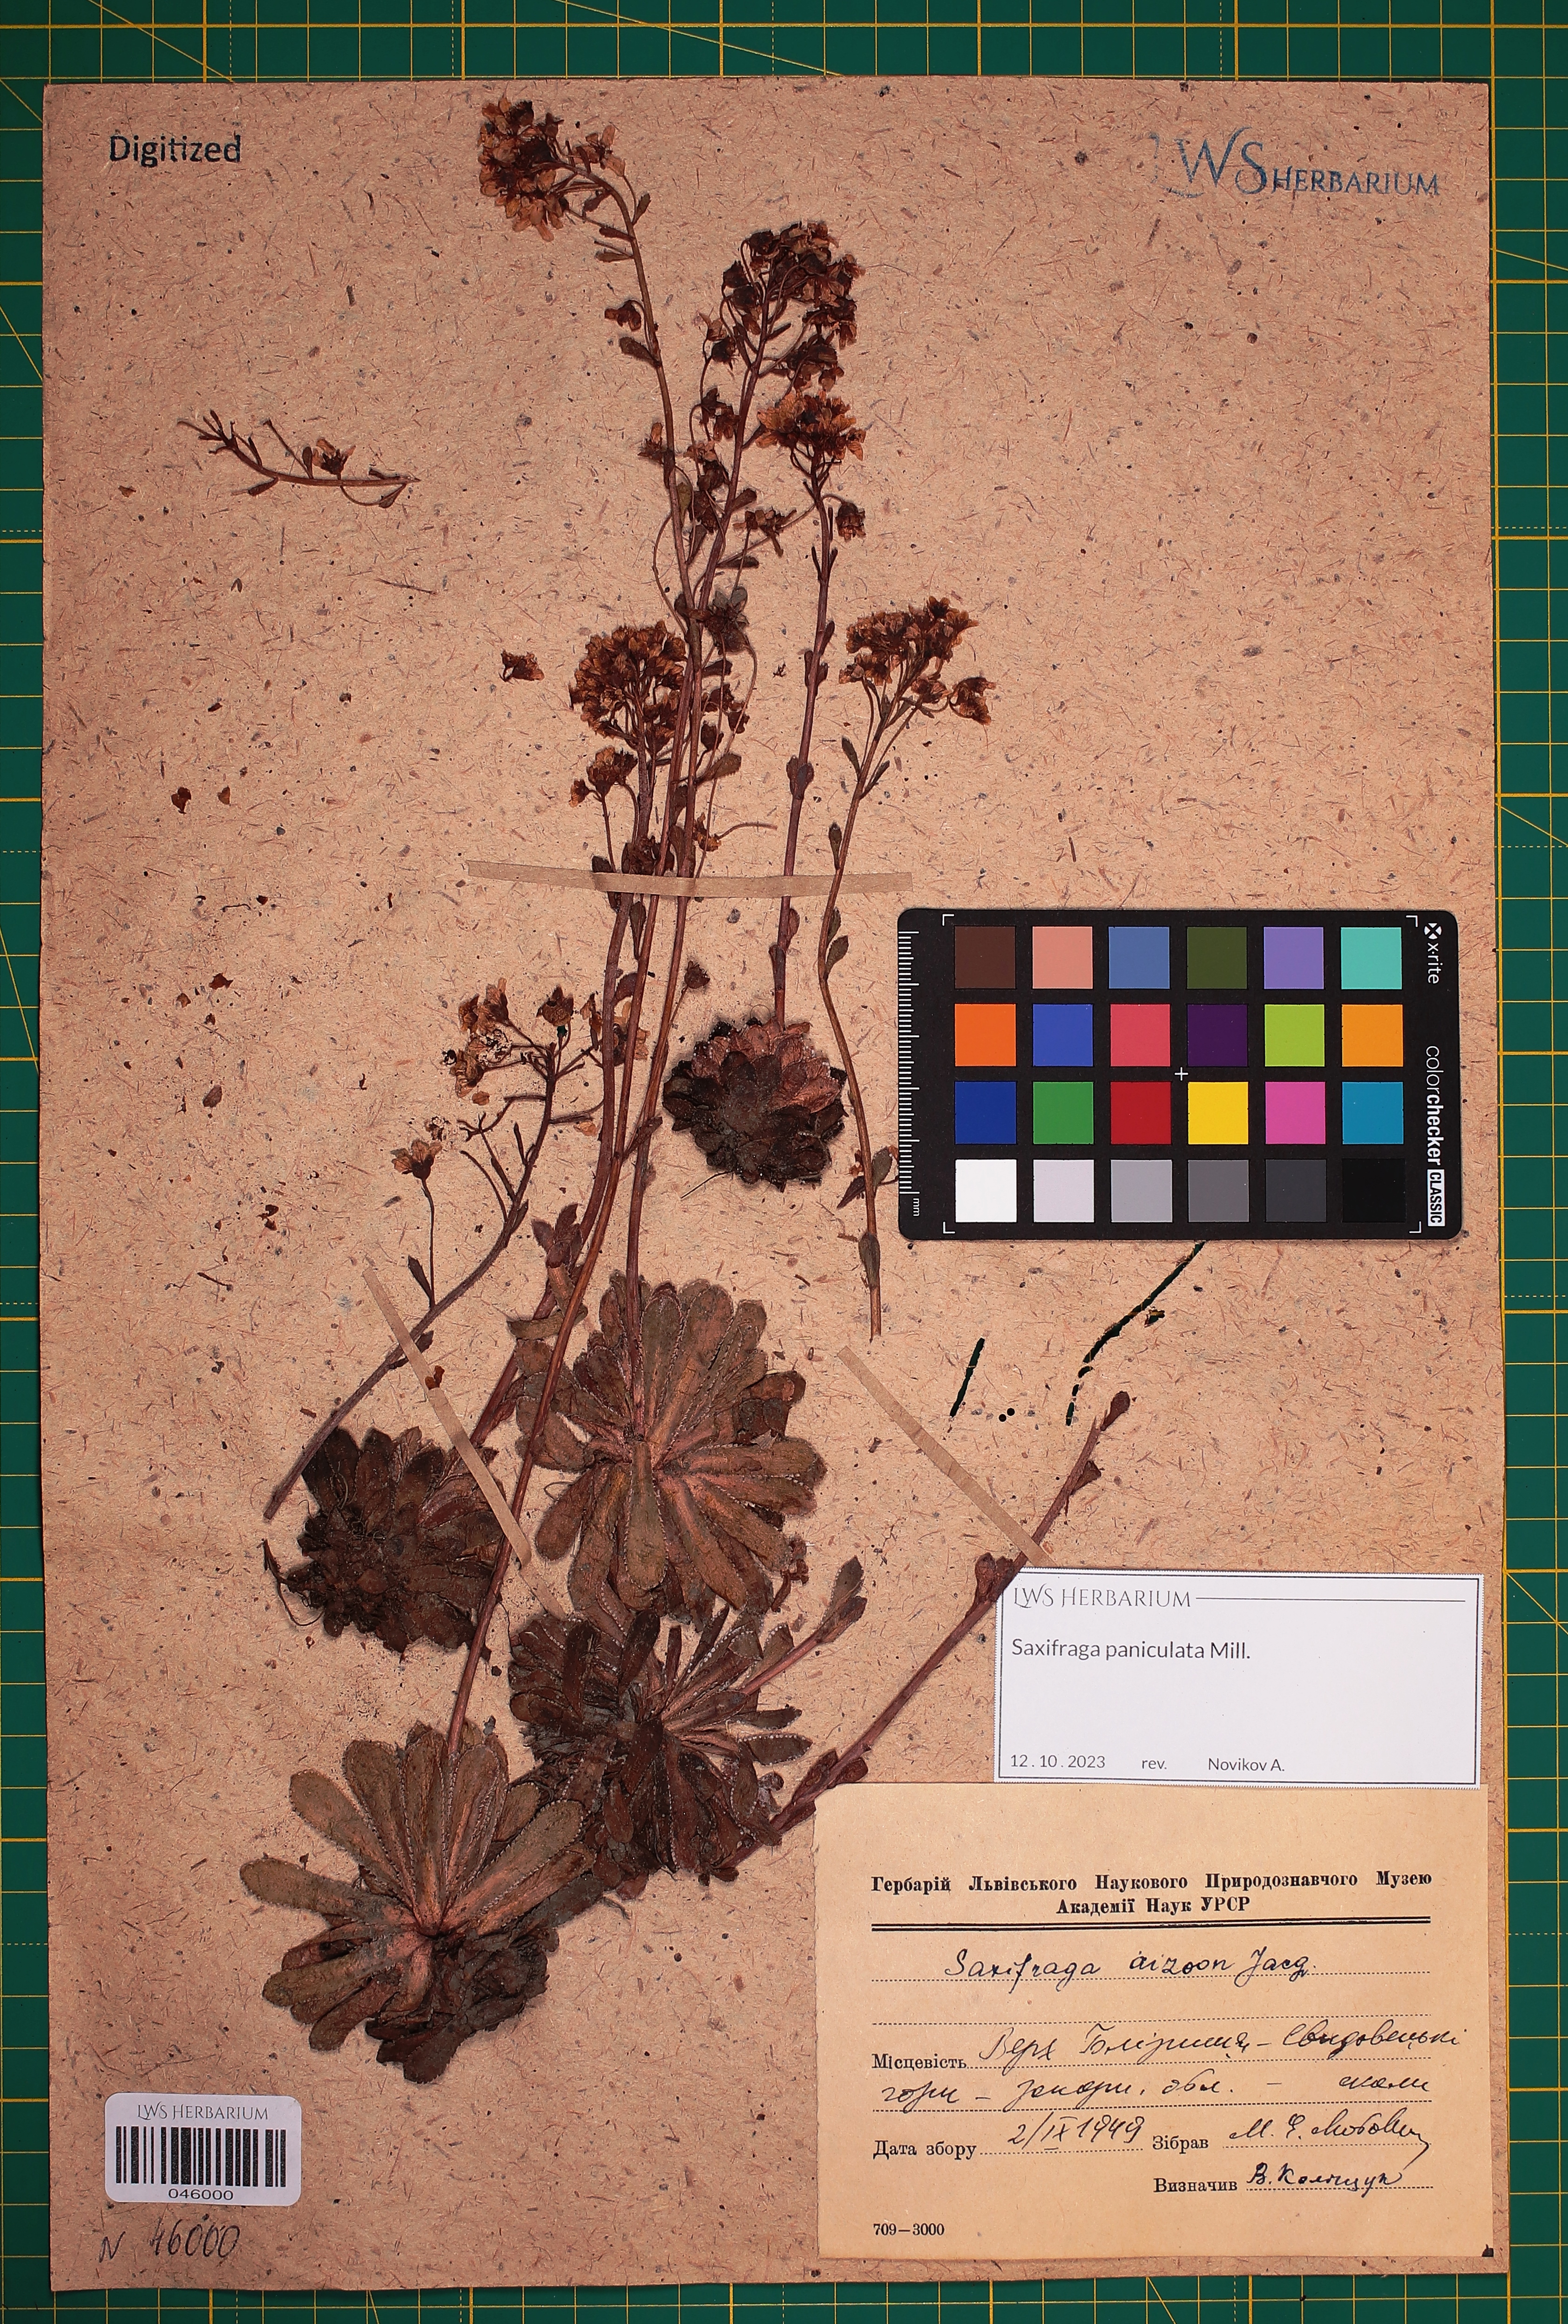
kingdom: Plantae
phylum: Tracheophyta
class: Magnoliopsida
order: Saxifragales
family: Saxifragaceae
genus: Saxifraga
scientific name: Saxifraga paniculata
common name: Livelong saxifrage
